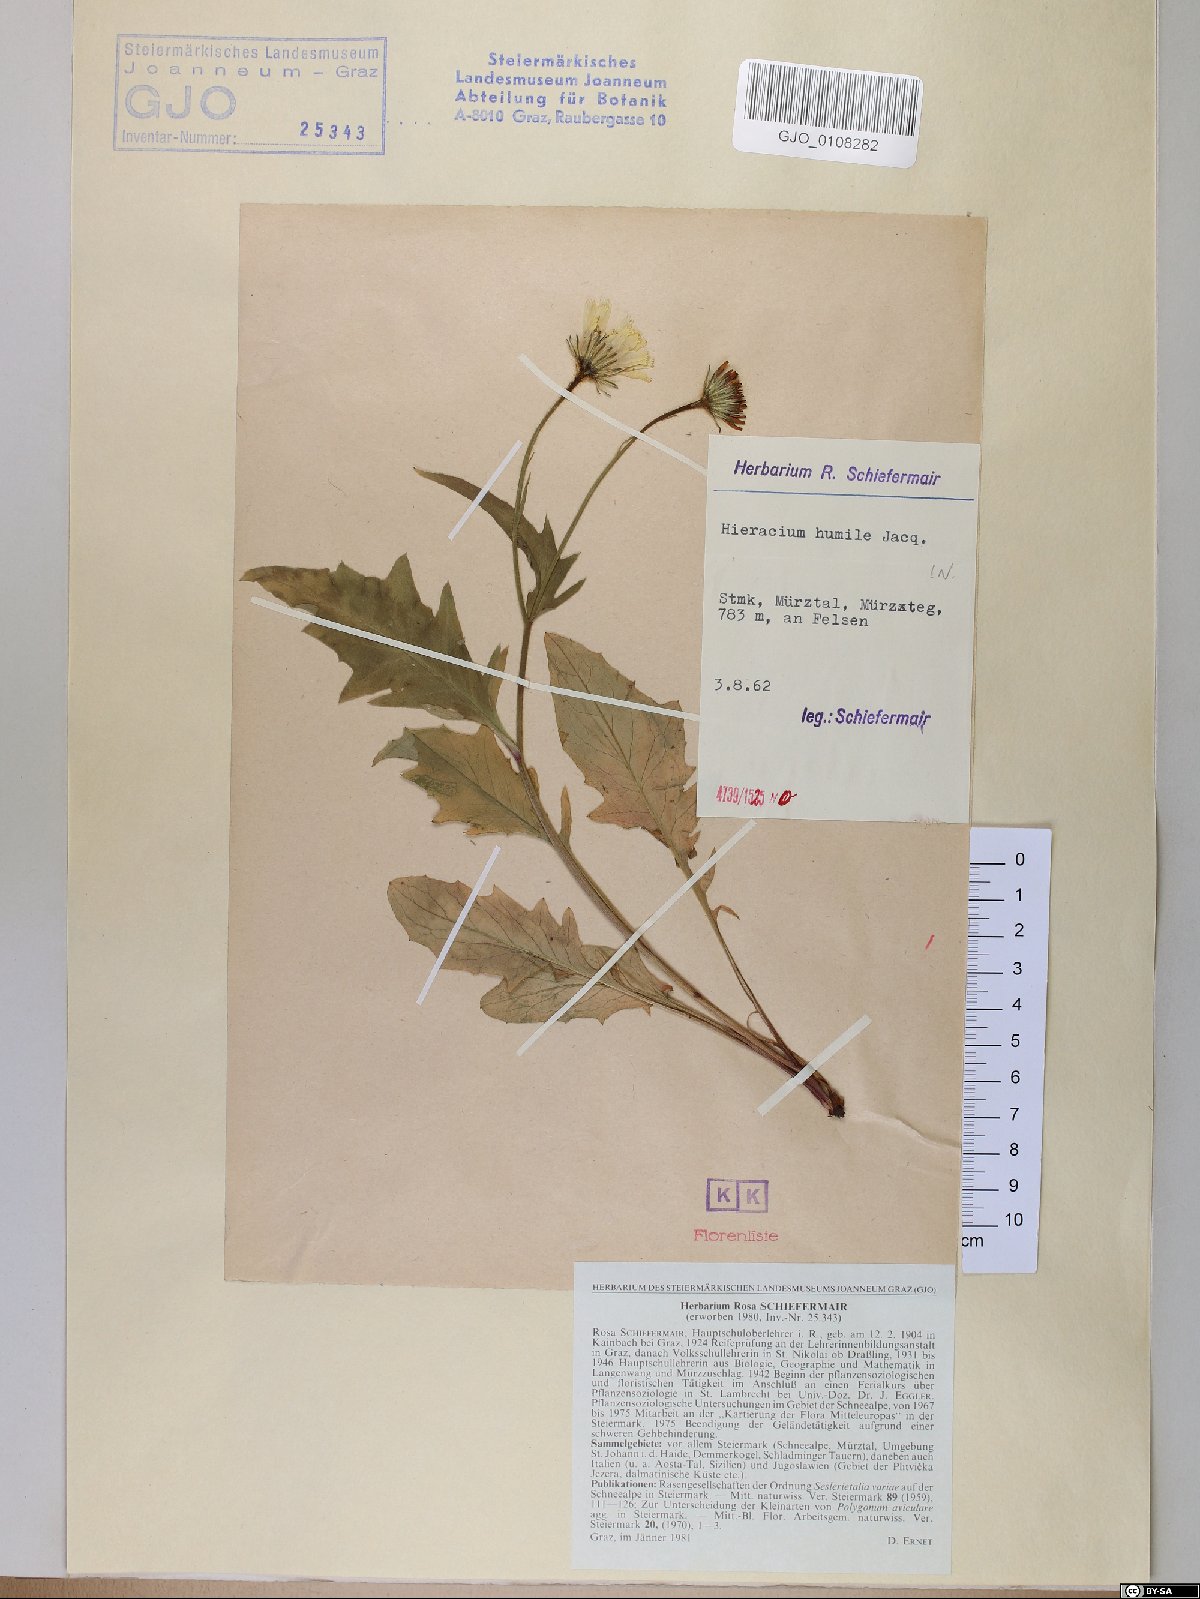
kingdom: Plantae
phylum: Tracheophyta
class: Magnoliopsida
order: Asterales
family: Asteraceae
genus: Hieracium
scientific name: Hieracium humile
